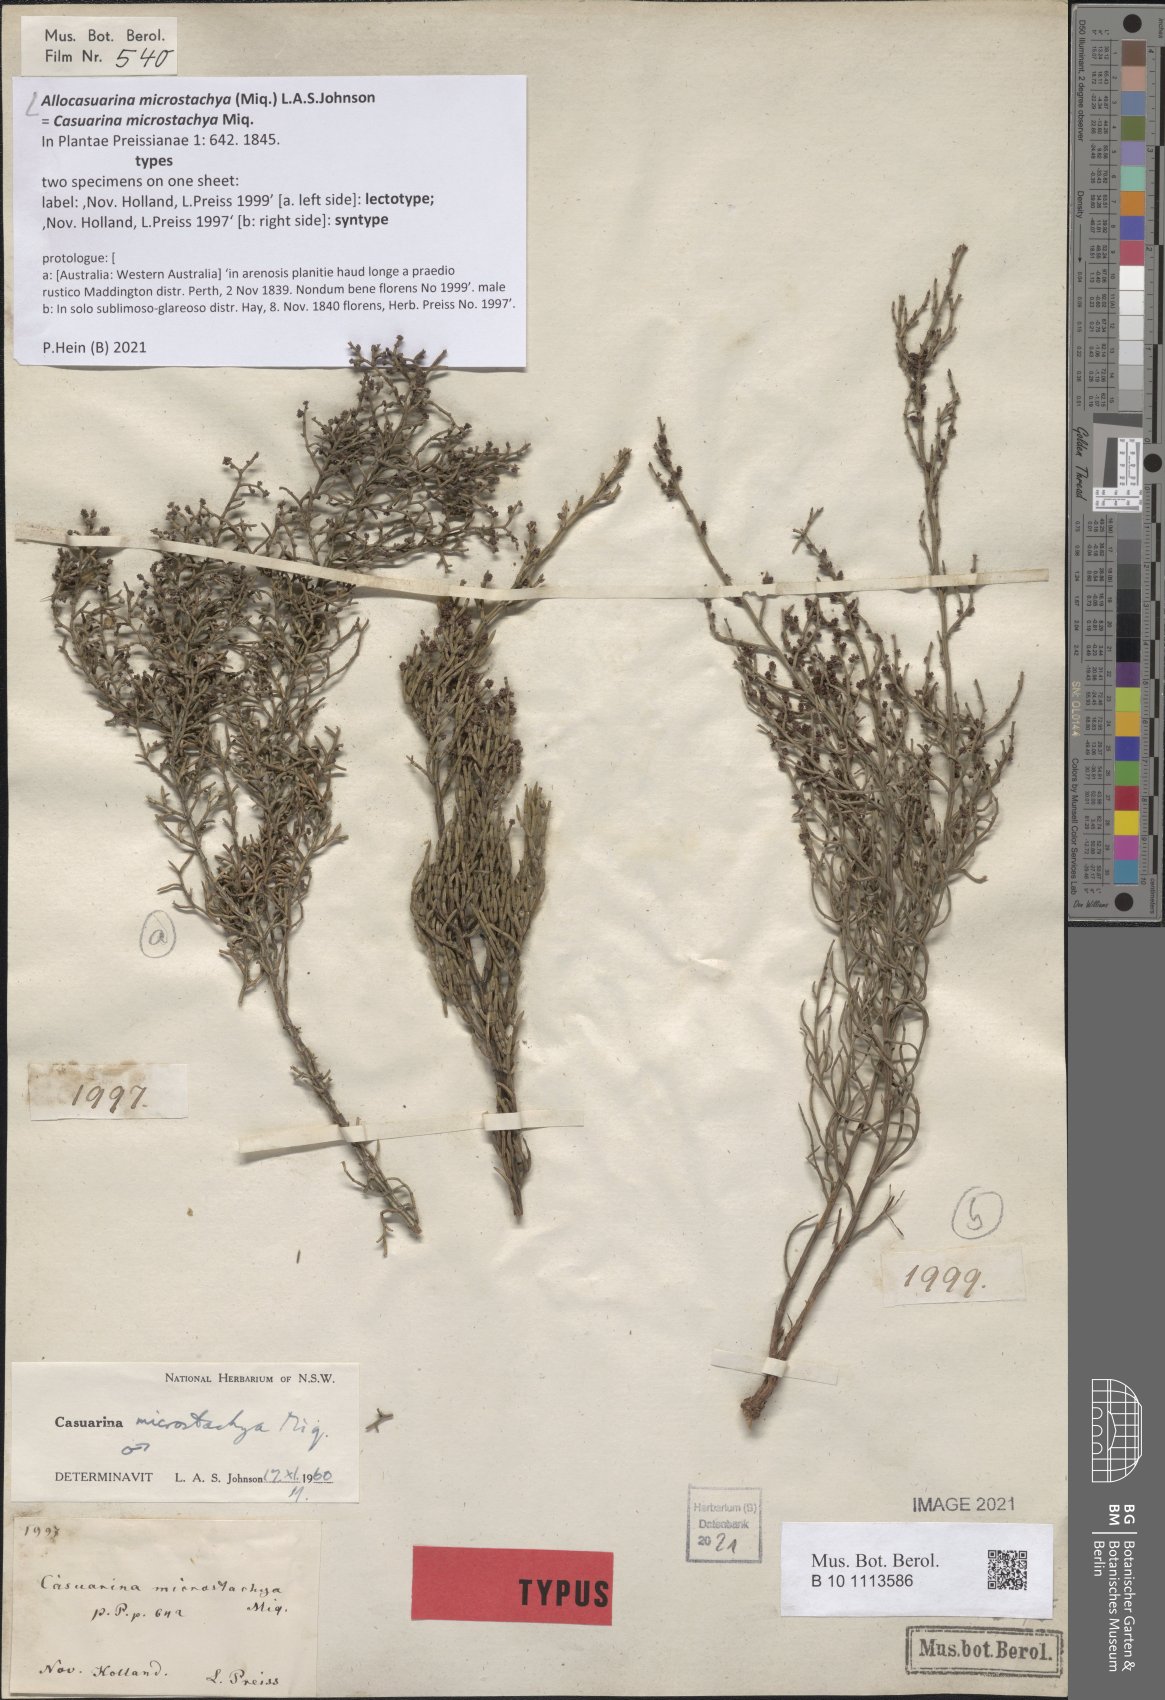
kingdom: Plantae
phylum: Tracheophyta
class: Magnoliopsida
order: Fagales
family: Casuarinaceae
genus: Allocasuarina
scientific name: Allocasuarina microstachya
